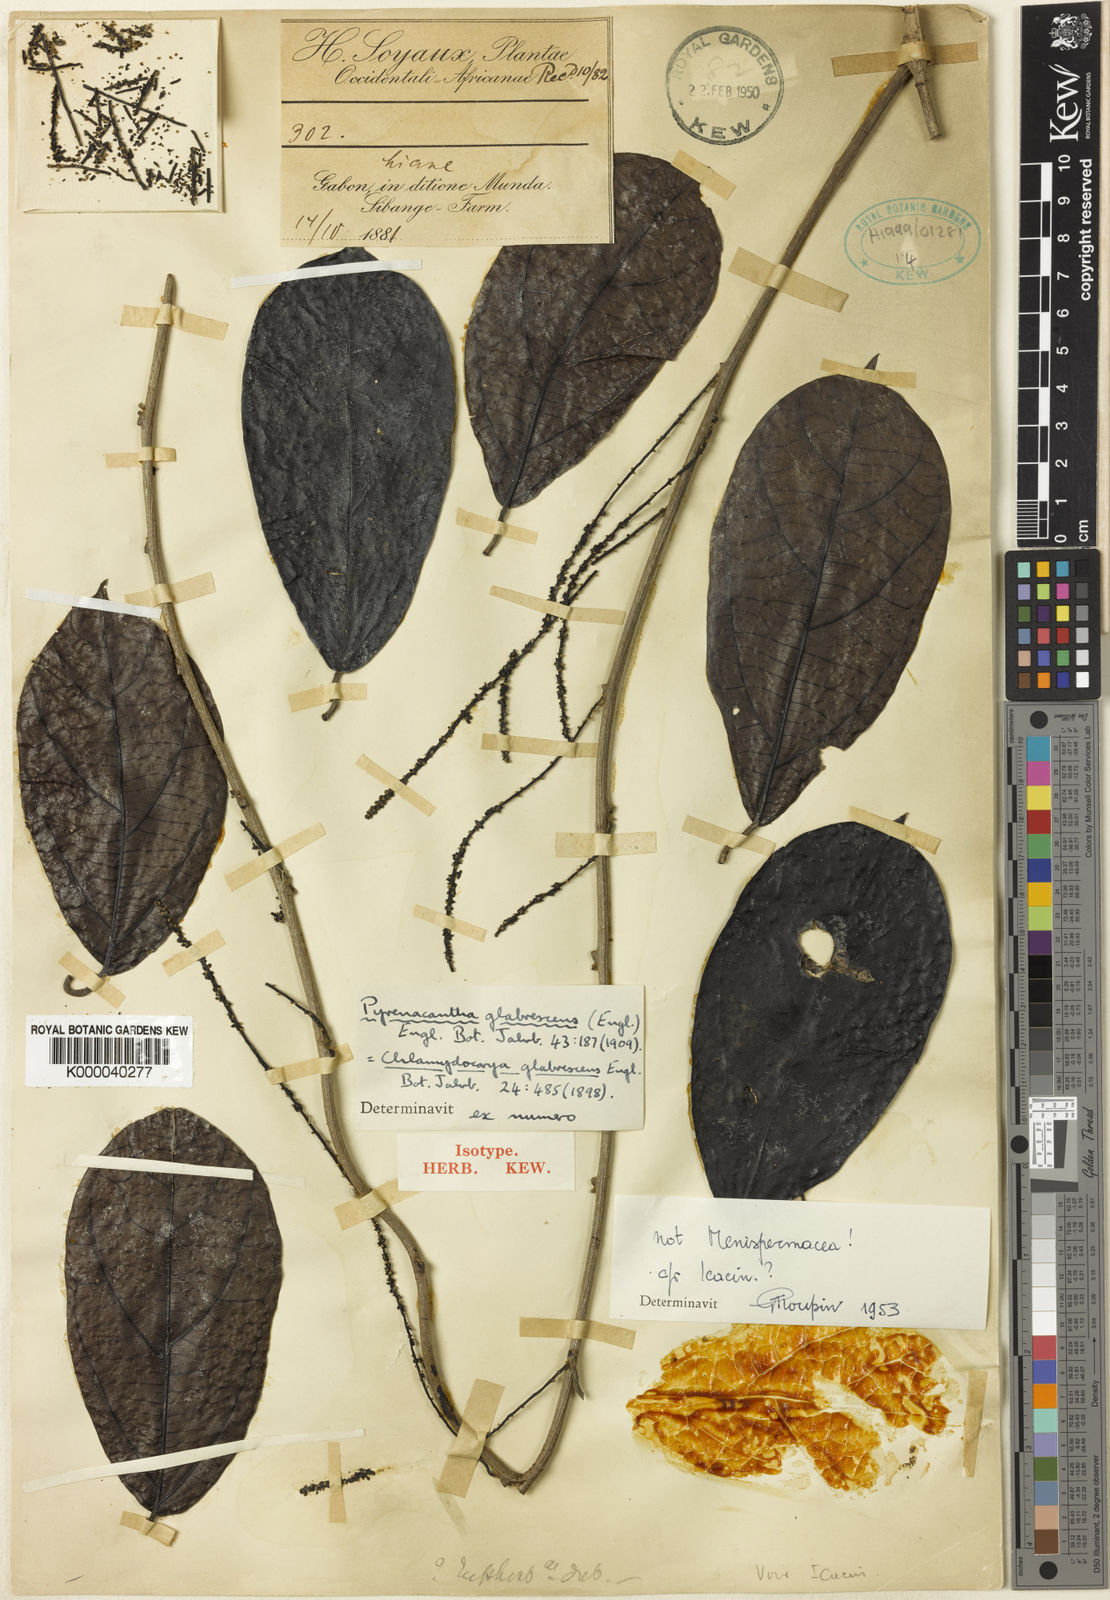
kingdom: Plantae
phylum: Tracheophyta
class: Magnoliopsida
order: Icacinales
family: Icacinaceae
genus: Pyrenacantha
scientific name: Pyrenacantha glabrescens
